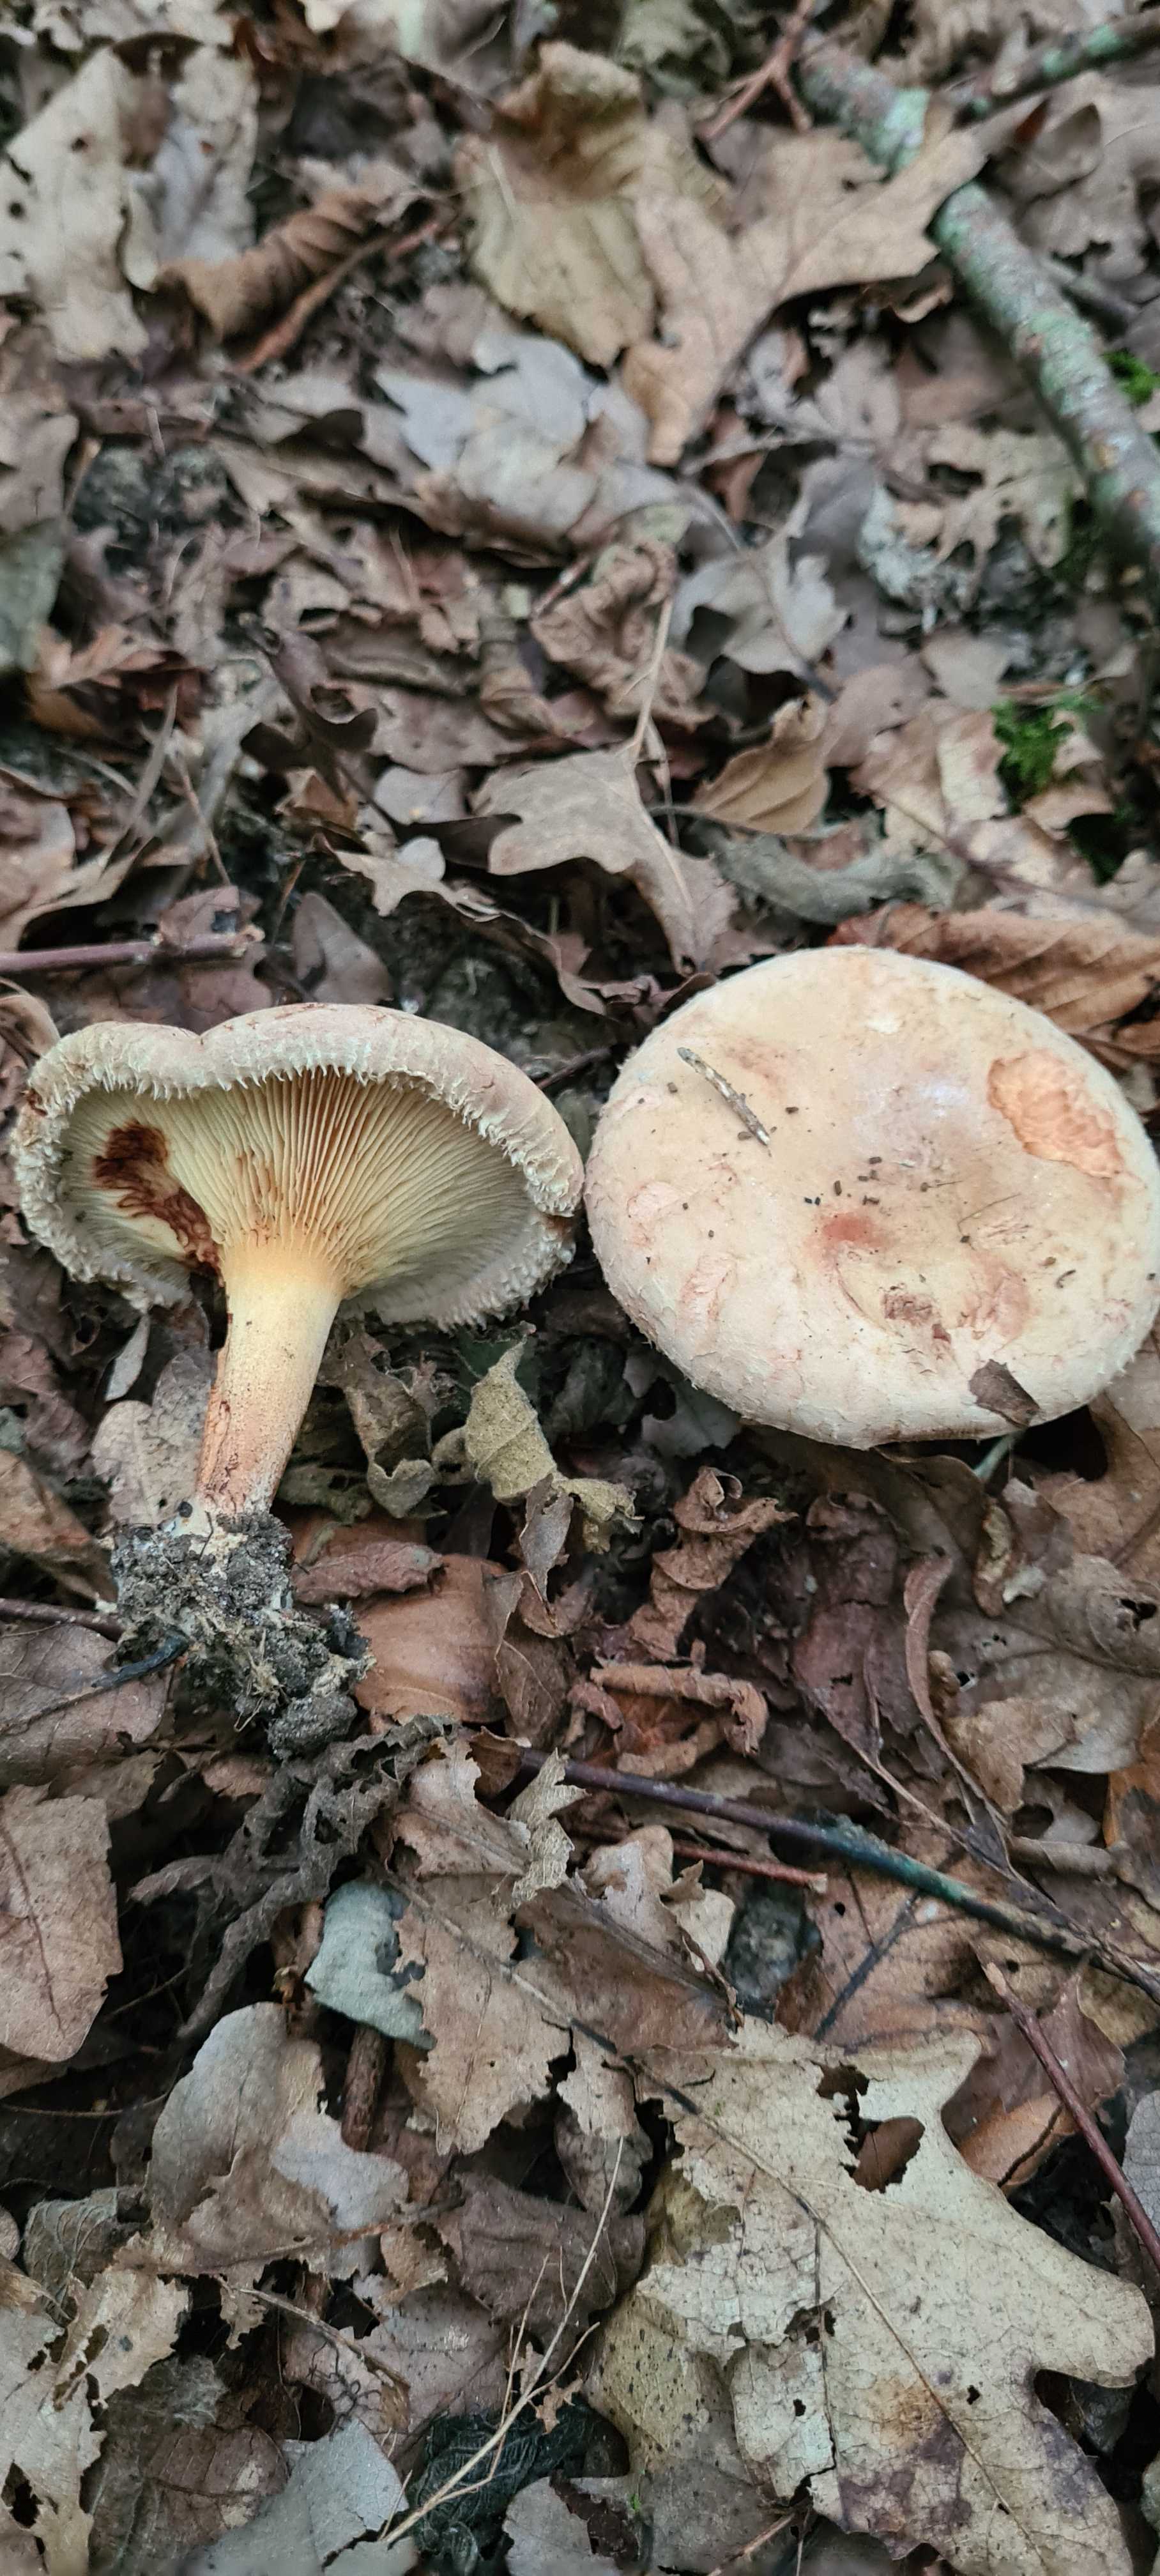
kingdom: Fungi
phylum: Basidiomycota
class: Agaricomycetes
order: Boletales
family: Paxillaceae
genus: Paxillus
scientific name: Paxillus
